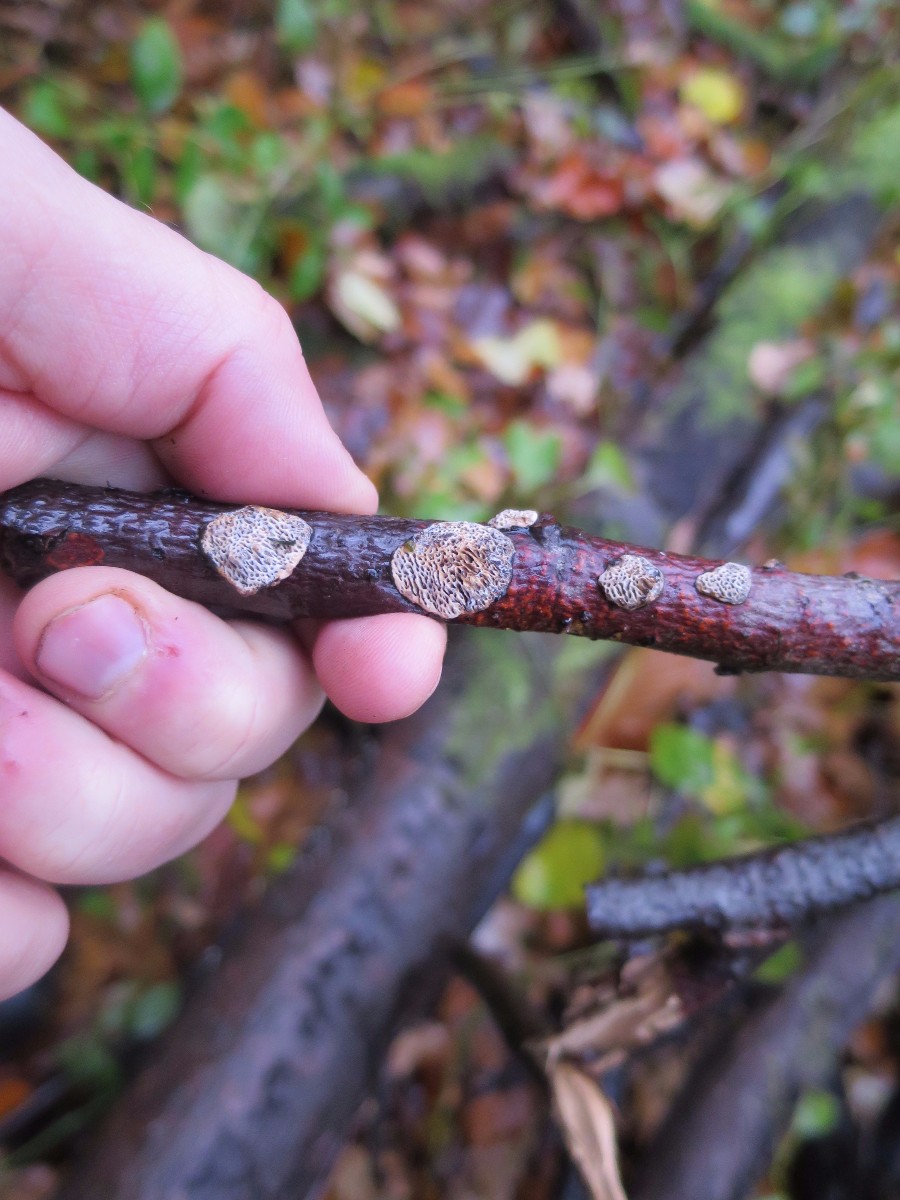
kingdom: Fungi
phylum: Basidiomycota
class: Agaricomycetes
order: Polyporales
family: Polyporaceae
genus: Podofomes
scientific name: Podofomes mollis
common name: blød begporesvamp
